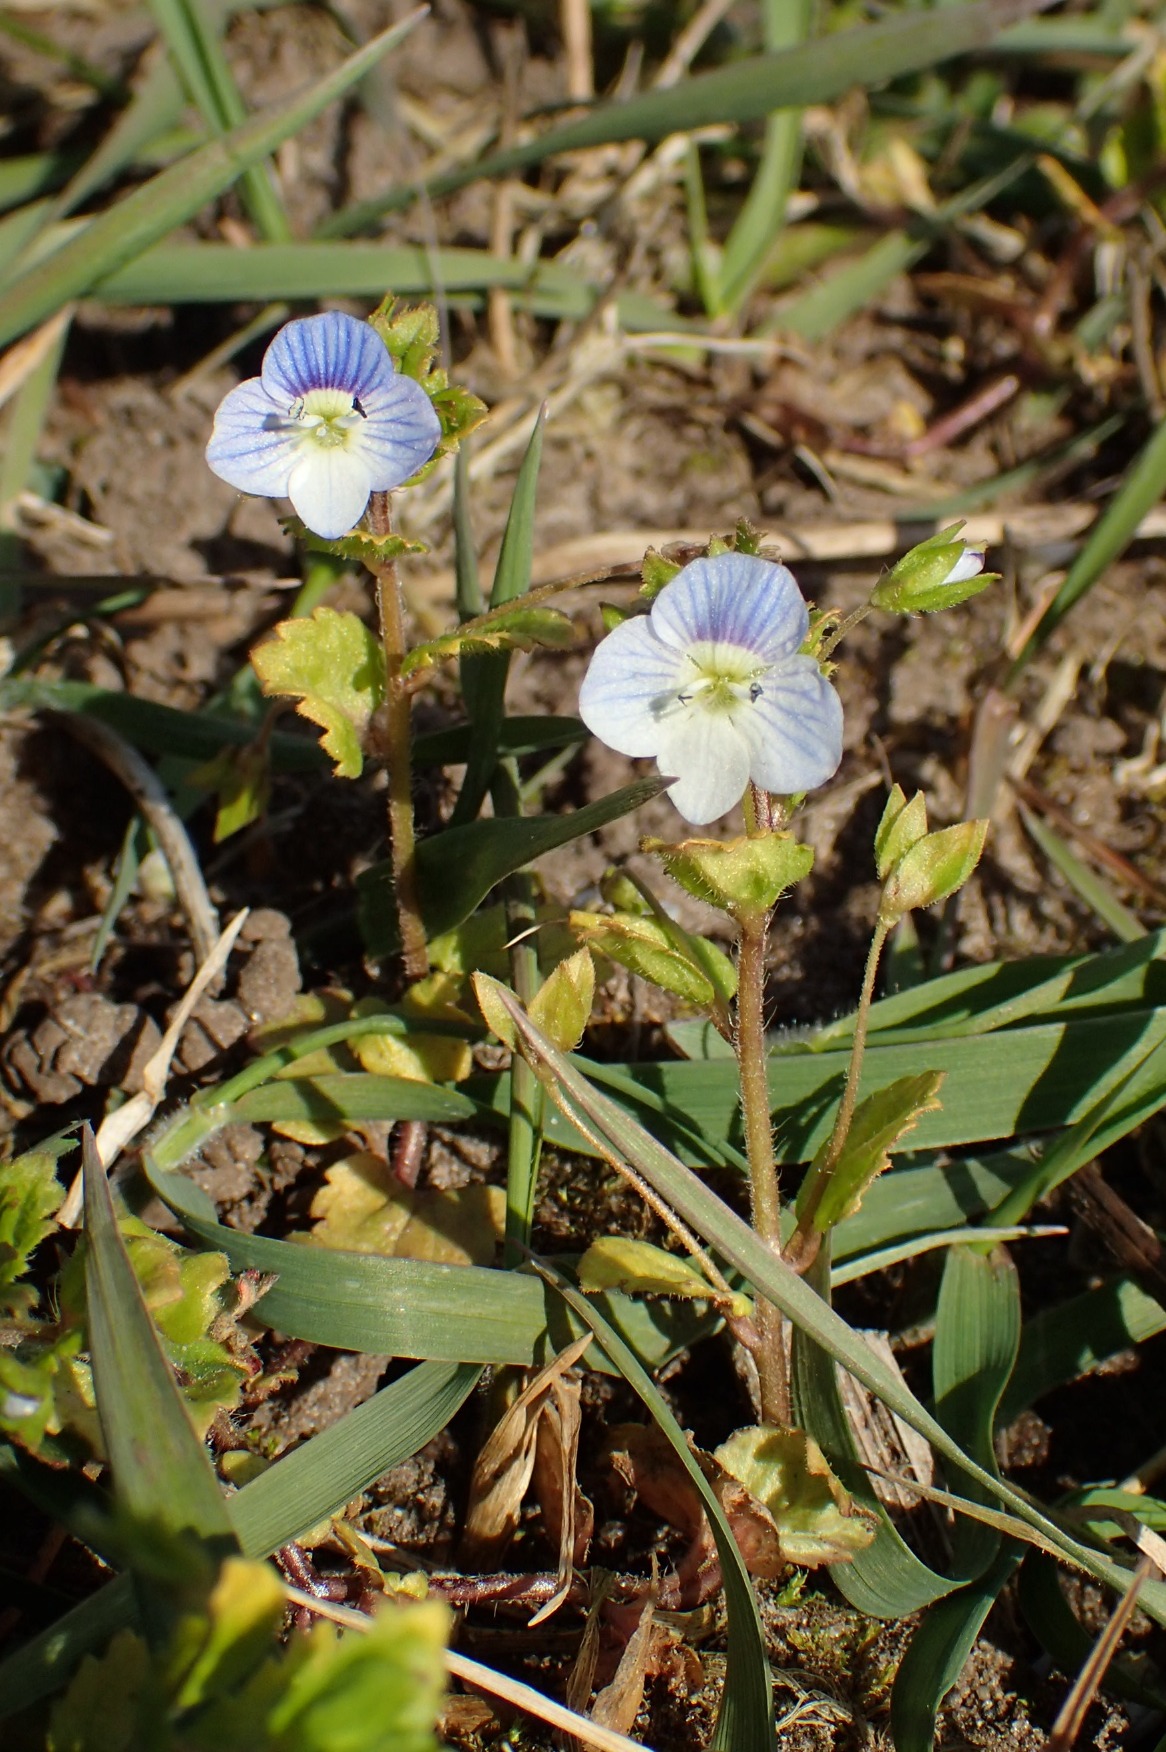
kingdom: Plantae
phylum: Tracheophyta
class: Magnoliopsida
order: Lamiales
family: Plantaginaceae
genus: Veronica
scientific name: Veronica persica
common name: Storkronet ærenpris
